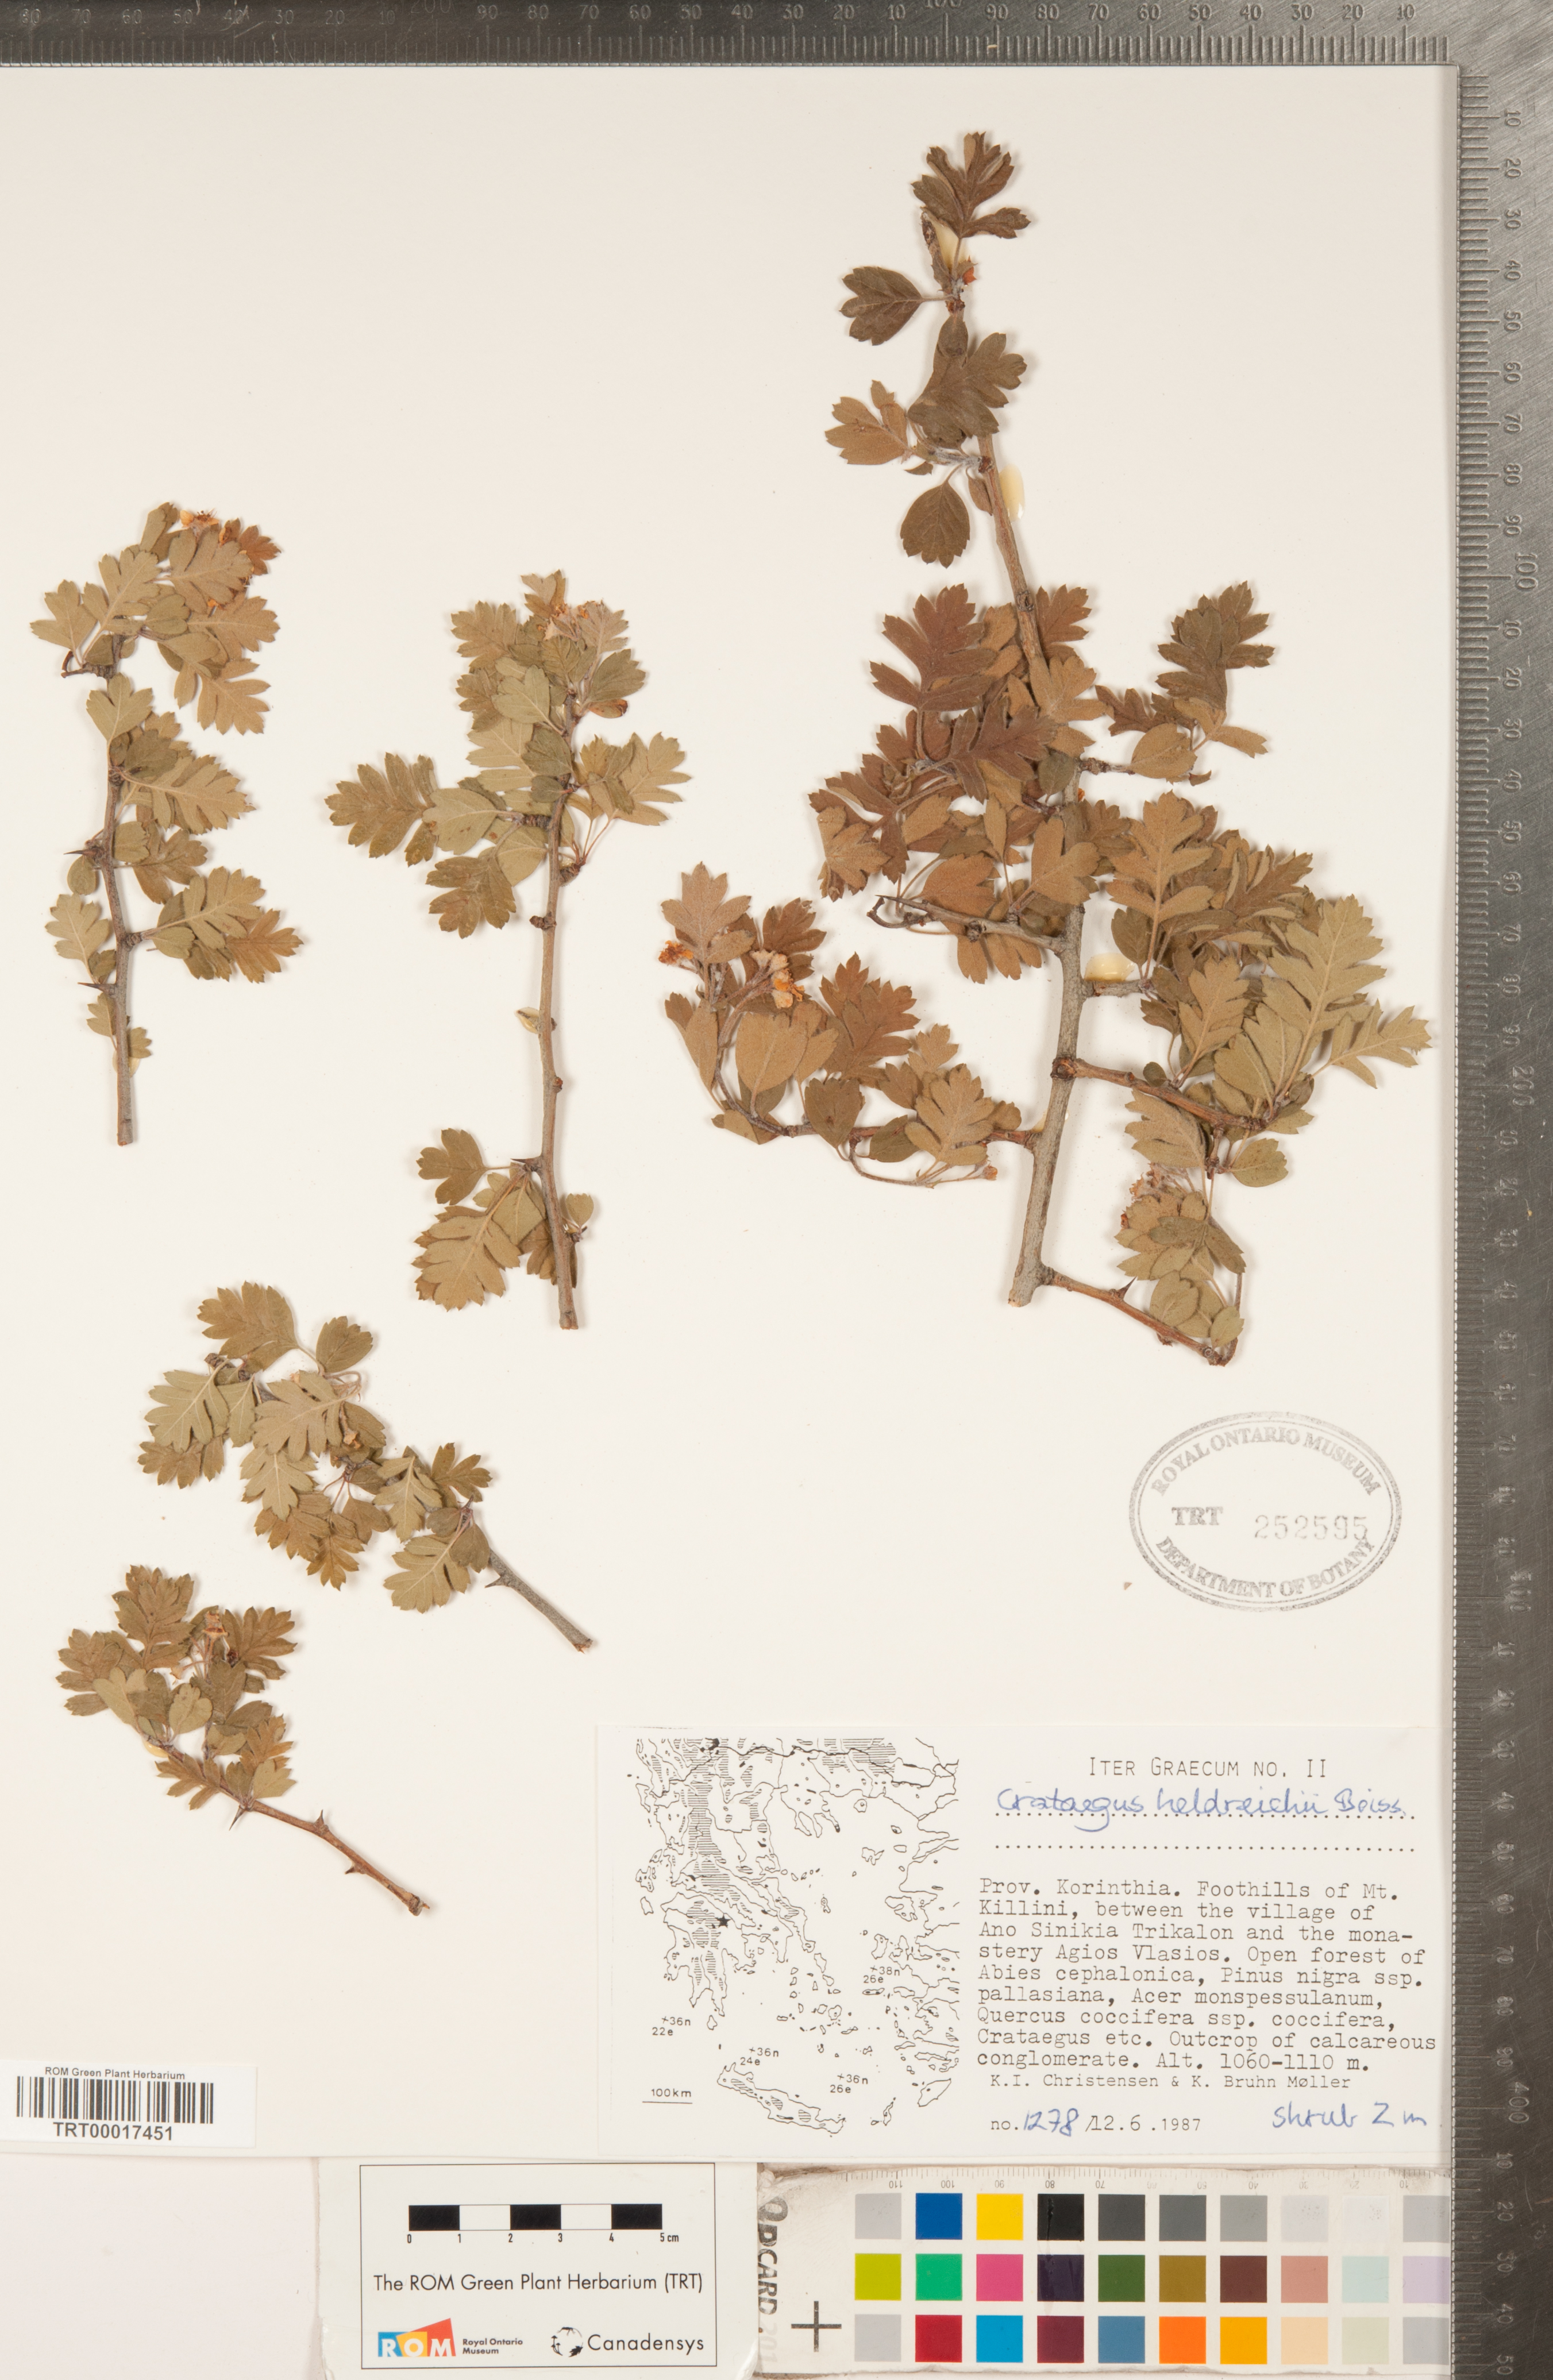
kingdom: Plantae
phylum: Tracheophyta
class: Magnoliopsida
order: Rosales
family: Rosaceae
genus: Crataegus
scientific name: Crataegus heldreichii
